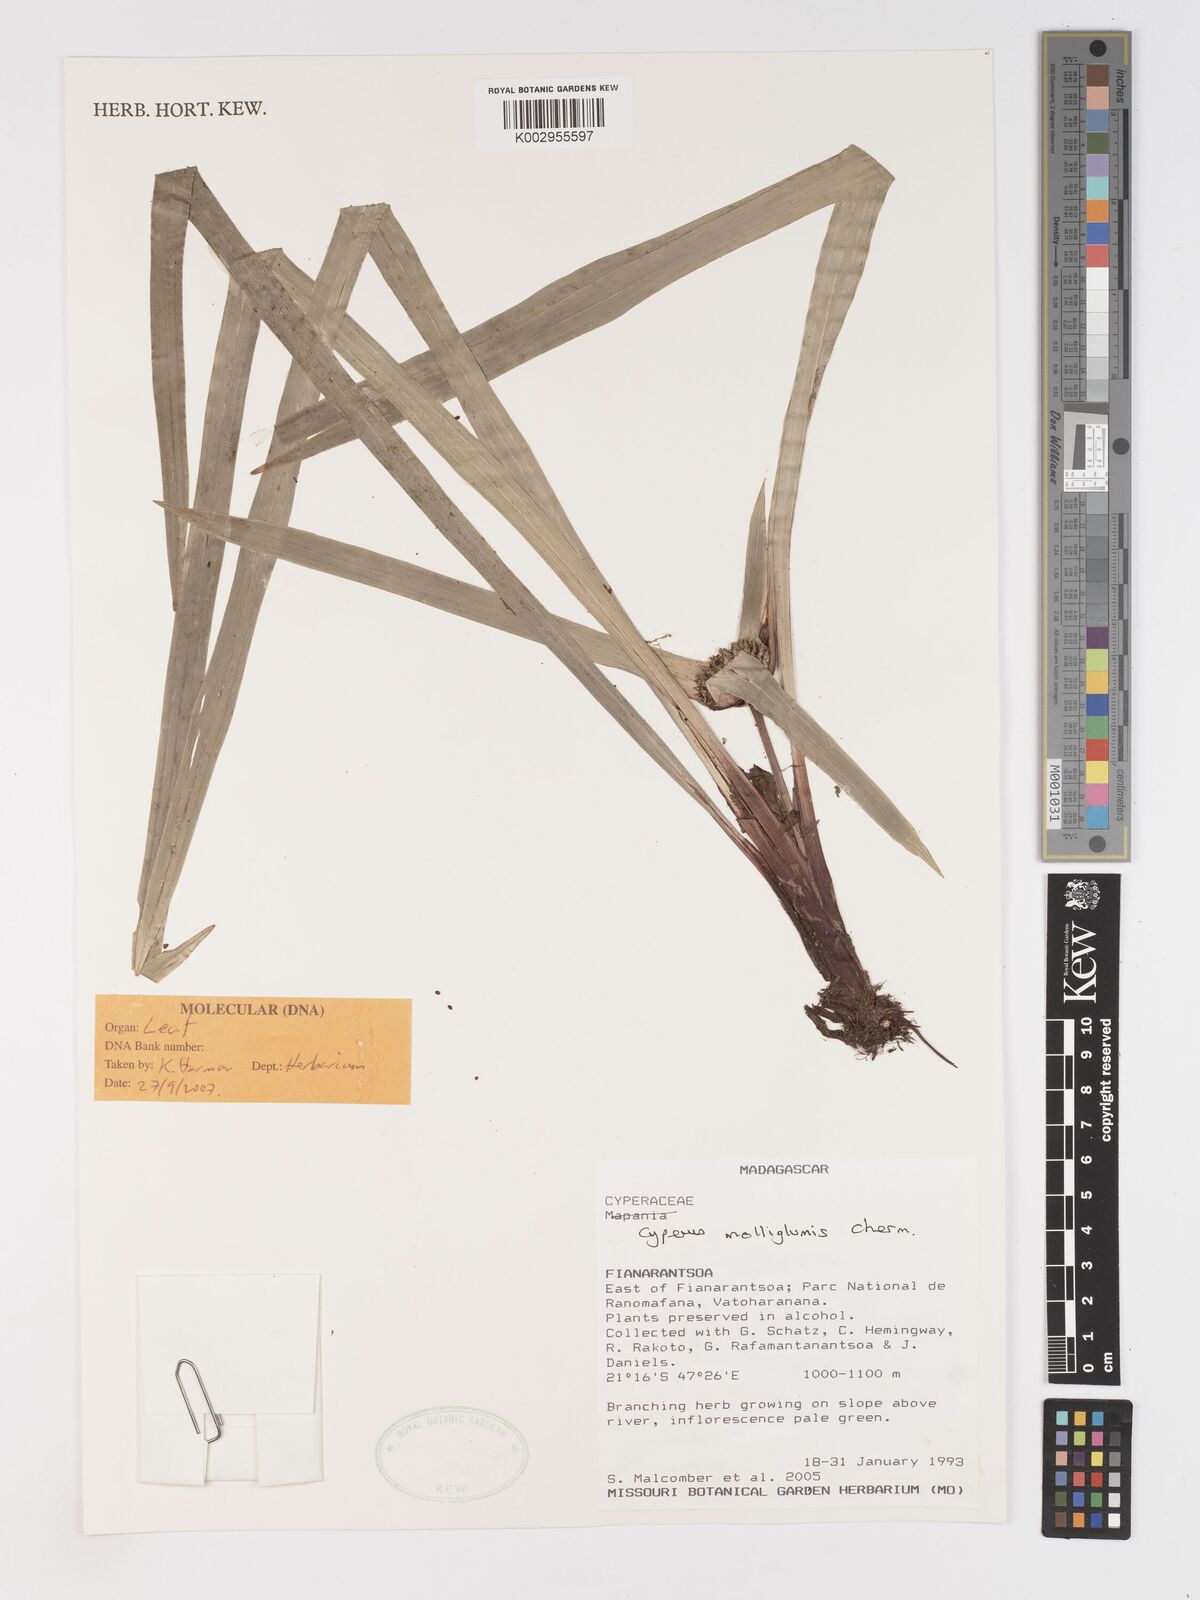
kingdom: Plantae
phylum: Tracheophyta
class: Liliopsida
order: Poales
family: Cyperaceae
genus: Cyperus
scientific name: Cyperus molliglumis
